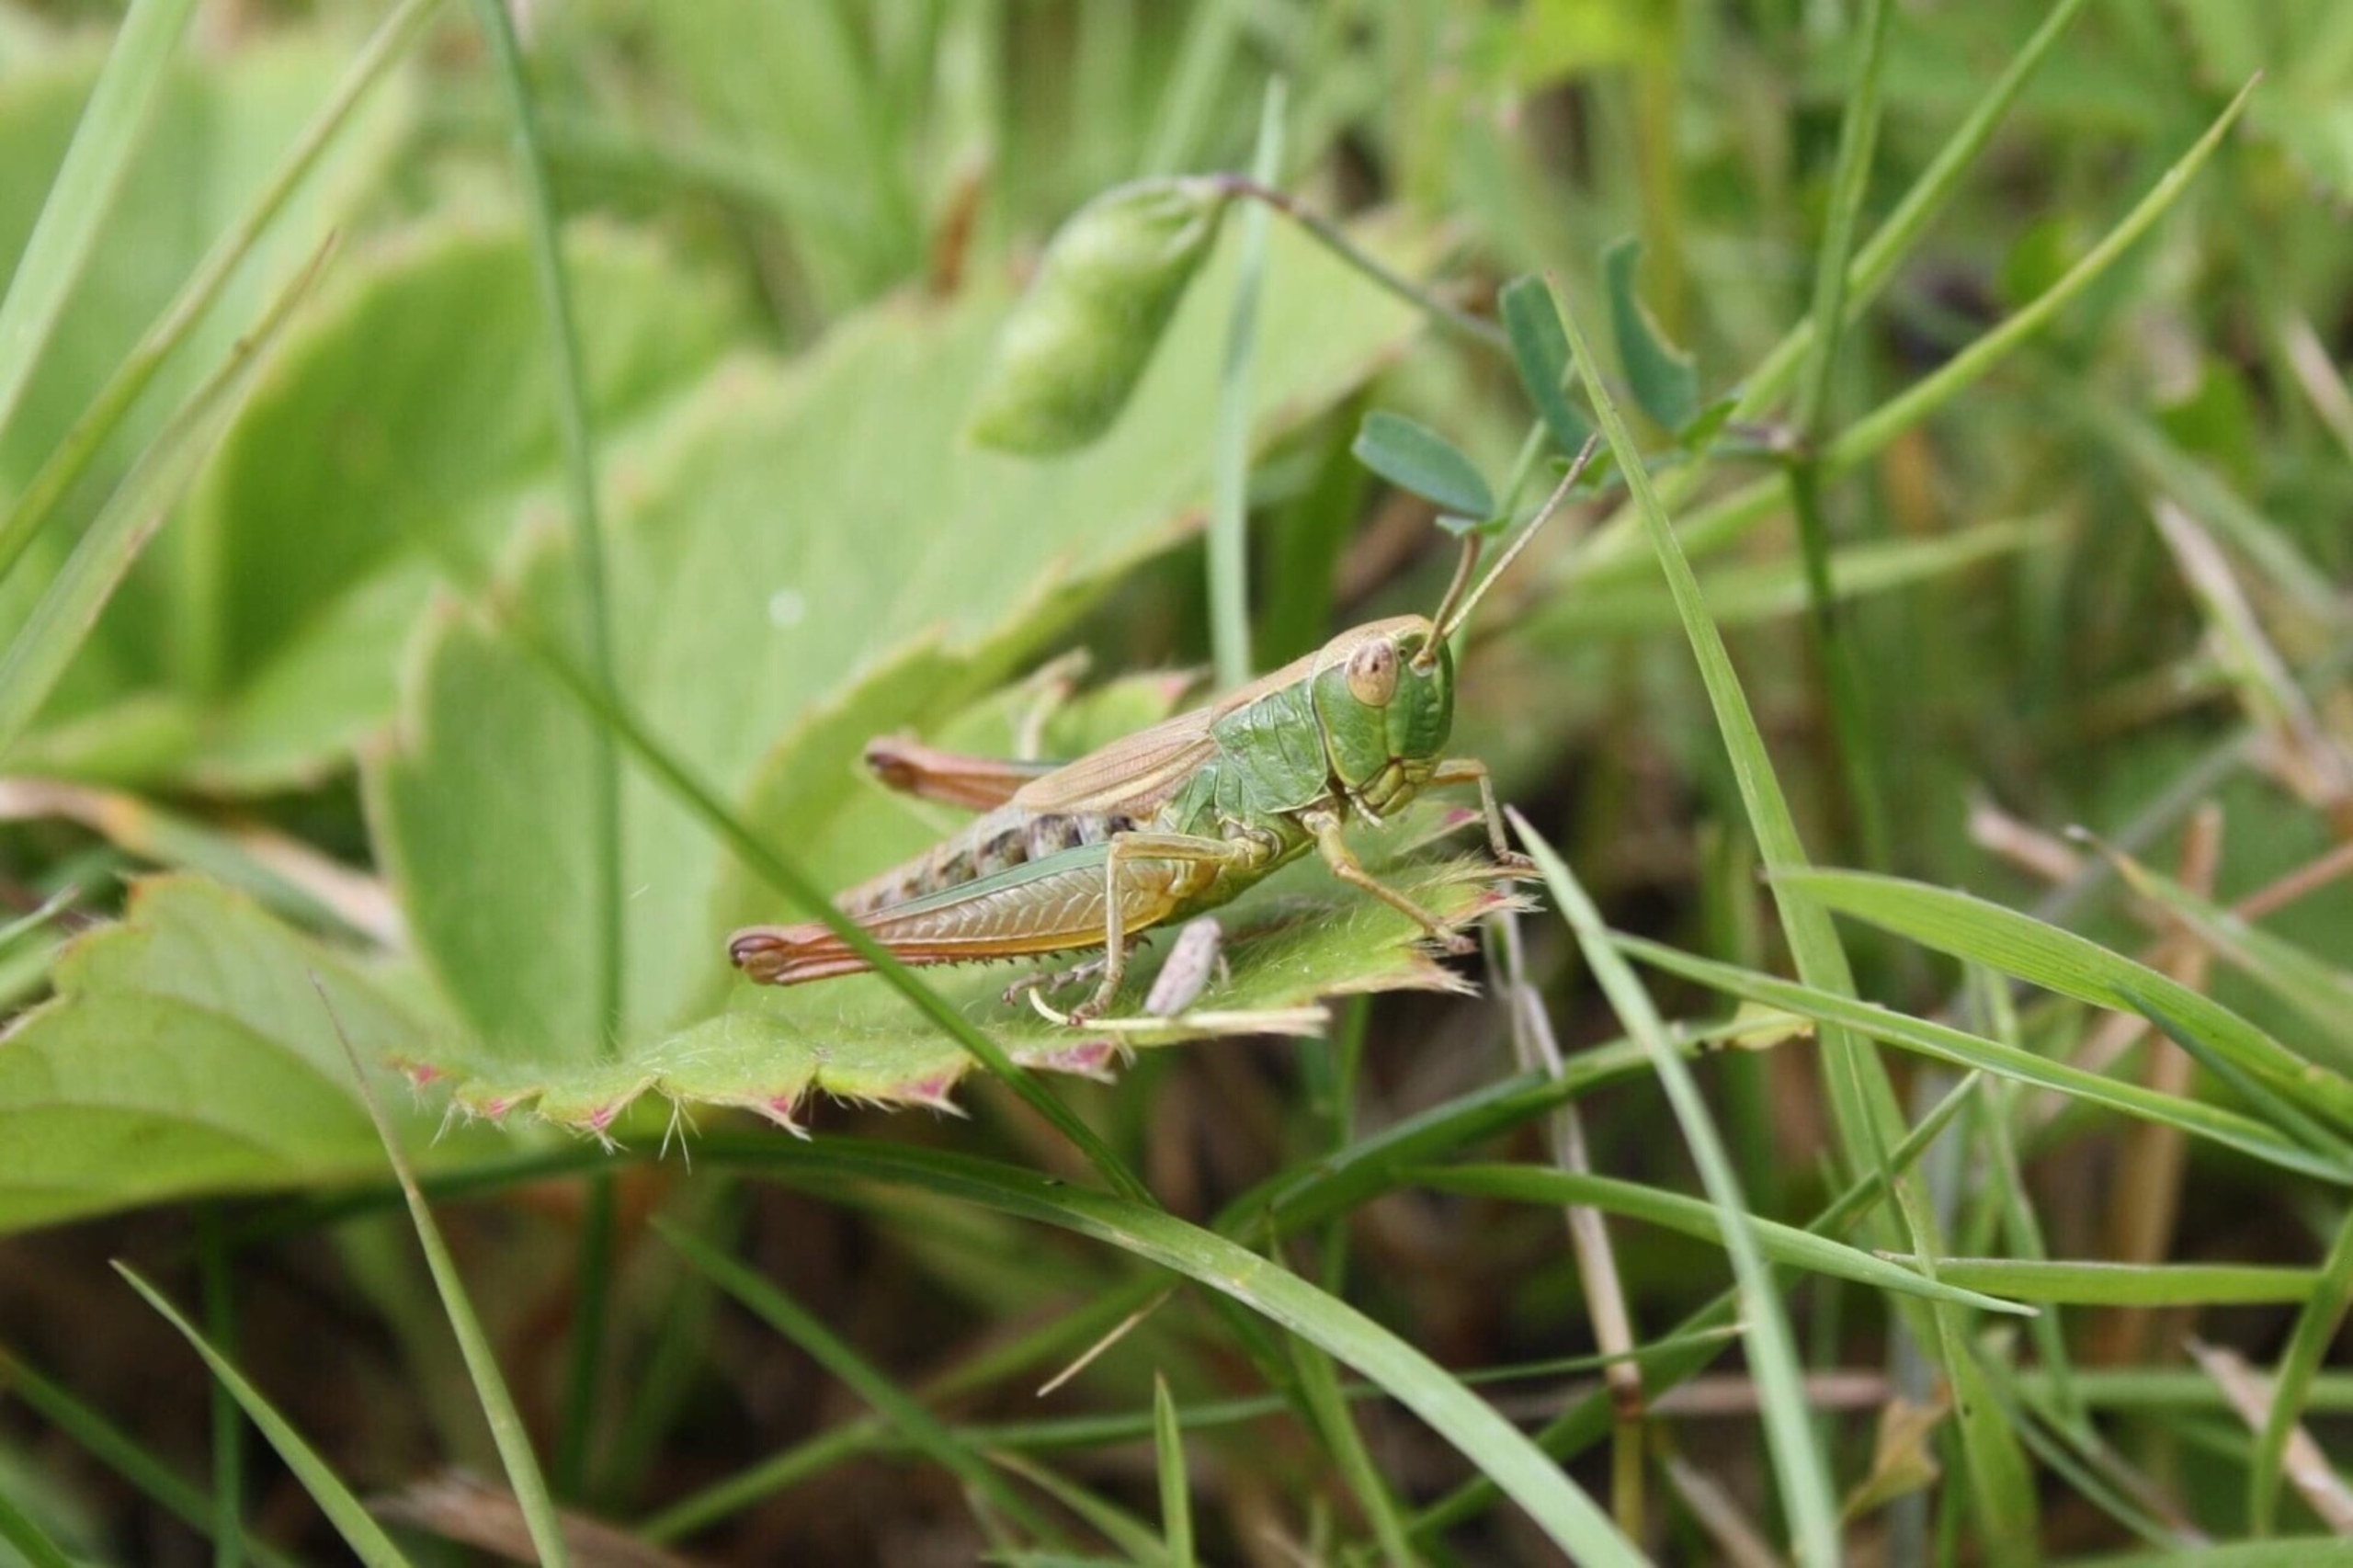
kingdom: Animalia
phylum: Arthropoda
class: Insecta
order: Orthoptera
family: Acrididae
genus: Pseudochorthippus
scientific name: Pseudochorthippus parallelus
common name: Enggræshoppe
